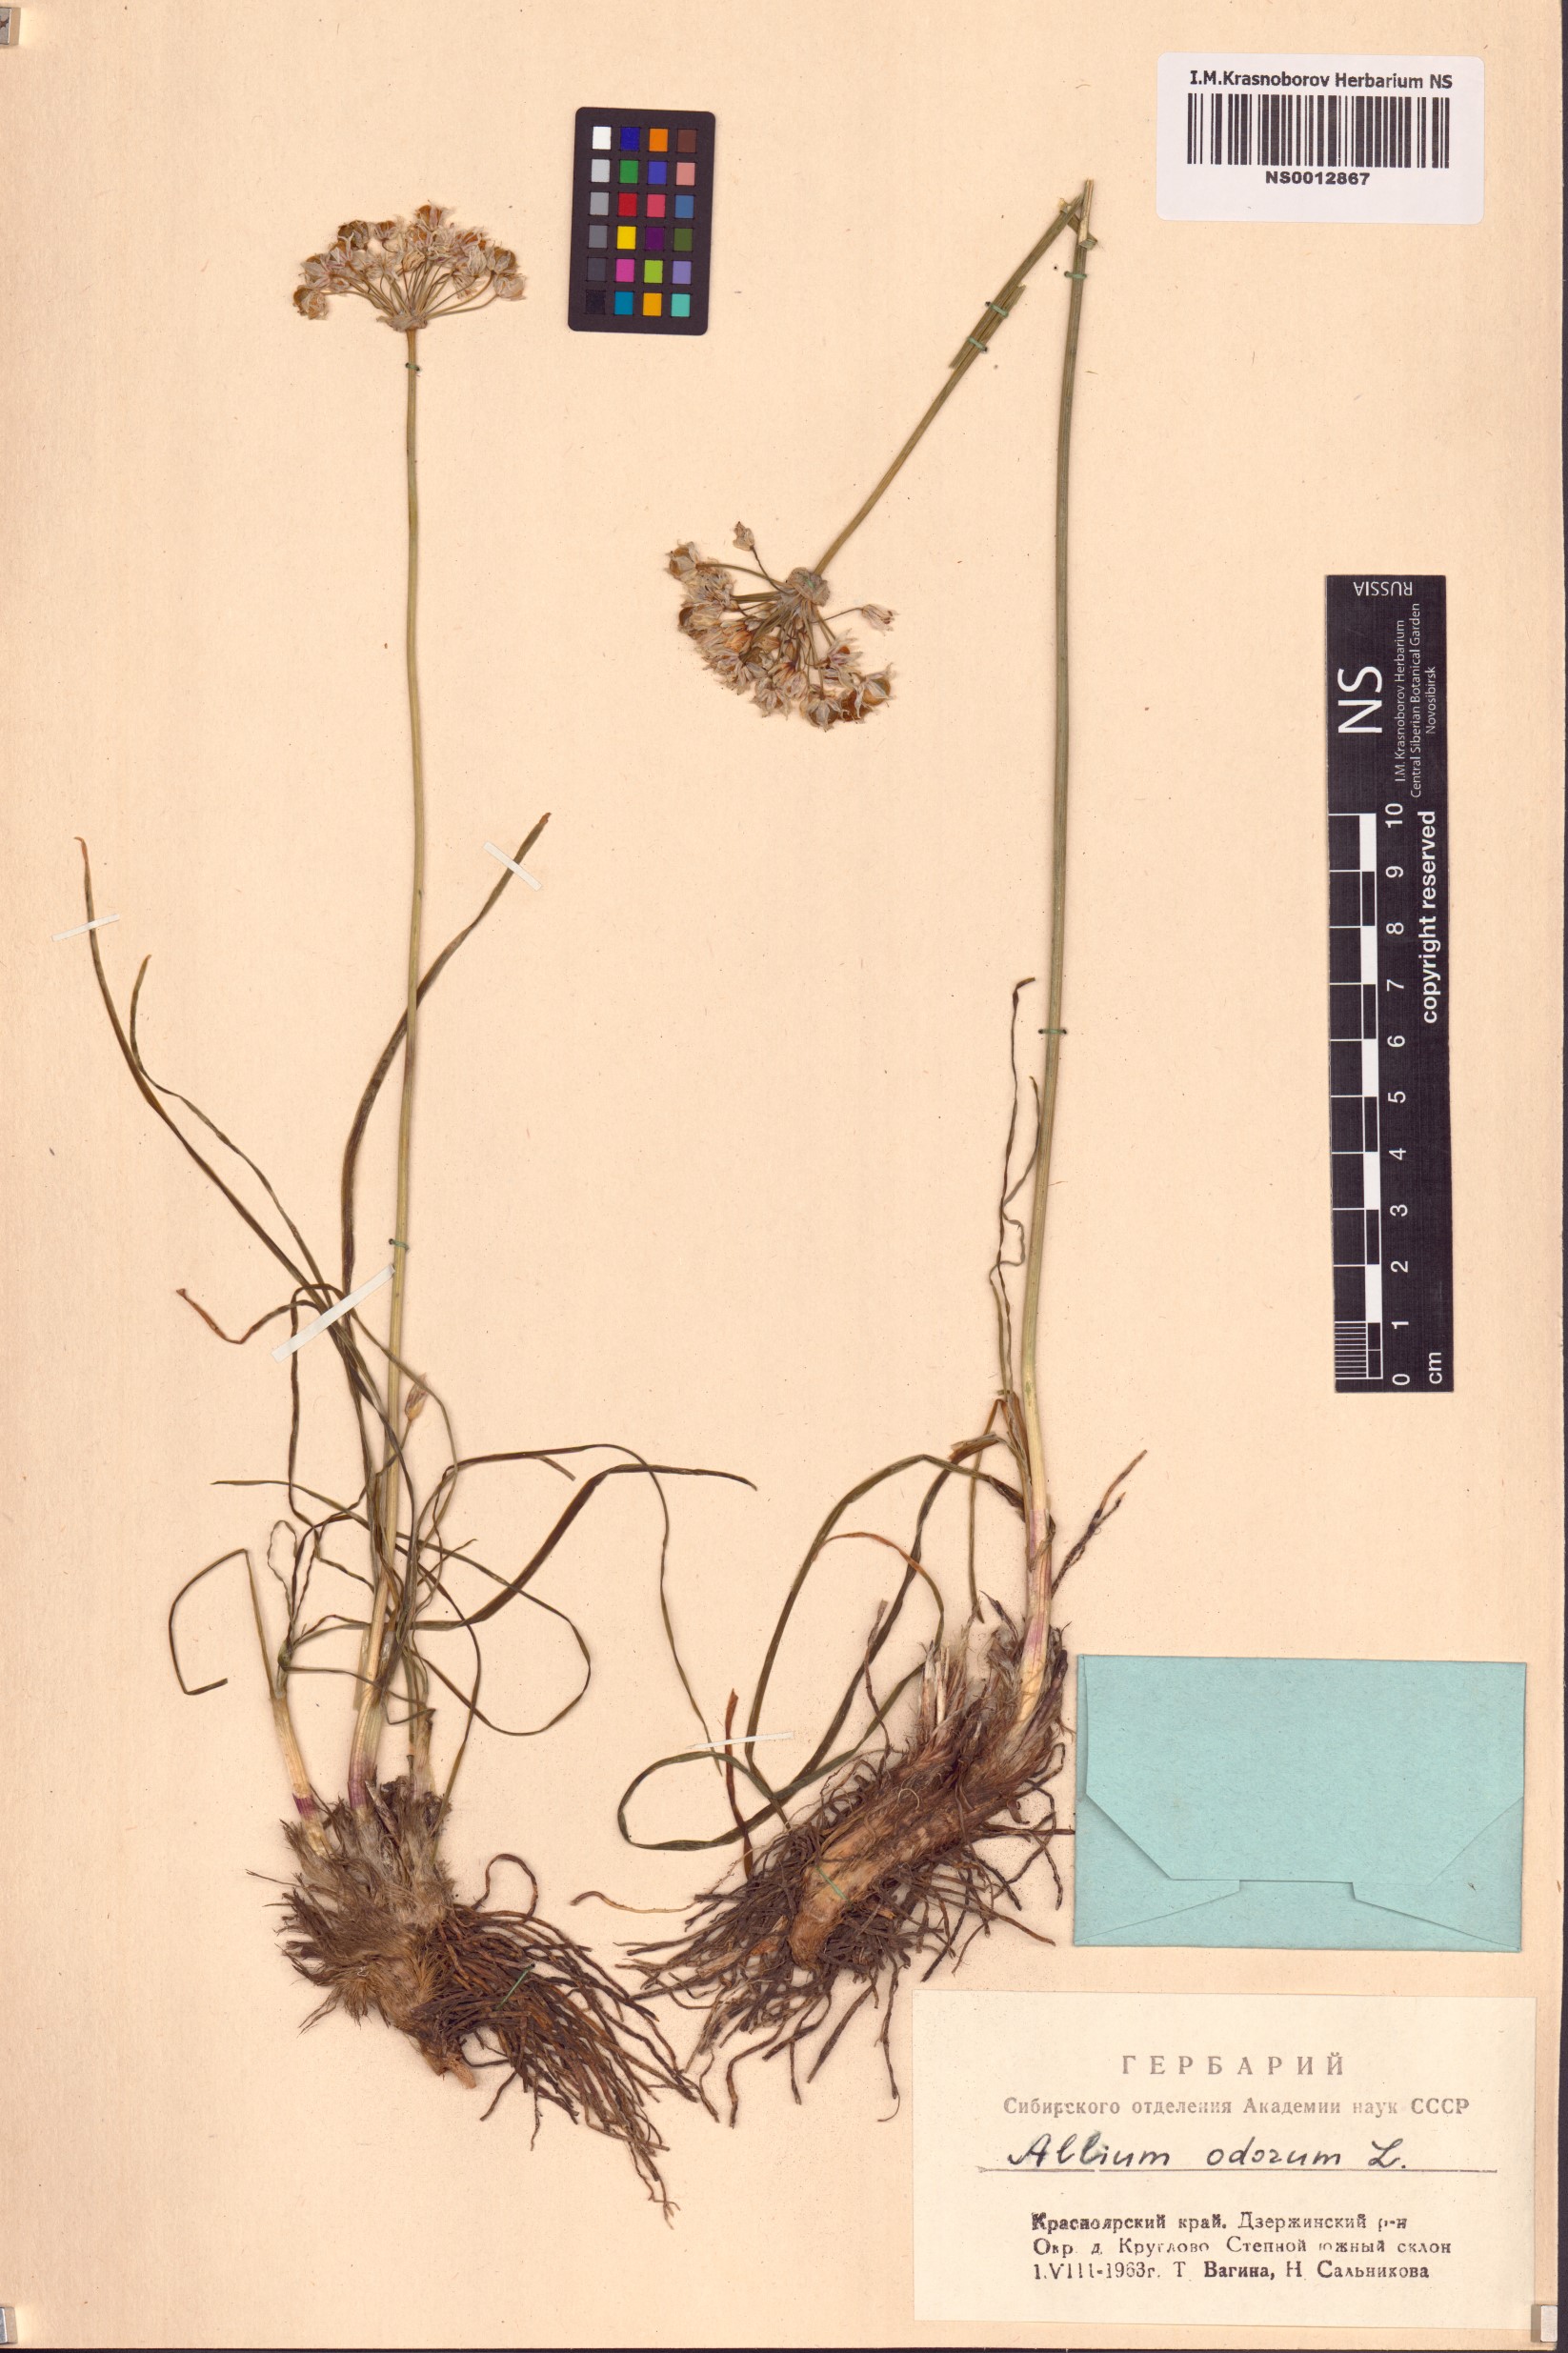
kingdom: Plantae
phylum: Tracheophyta
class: Liliopsida
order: Asparagales
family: Amaryllidaceae
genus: Allium
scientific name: Allium ramosum
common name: Fragrant garlic
